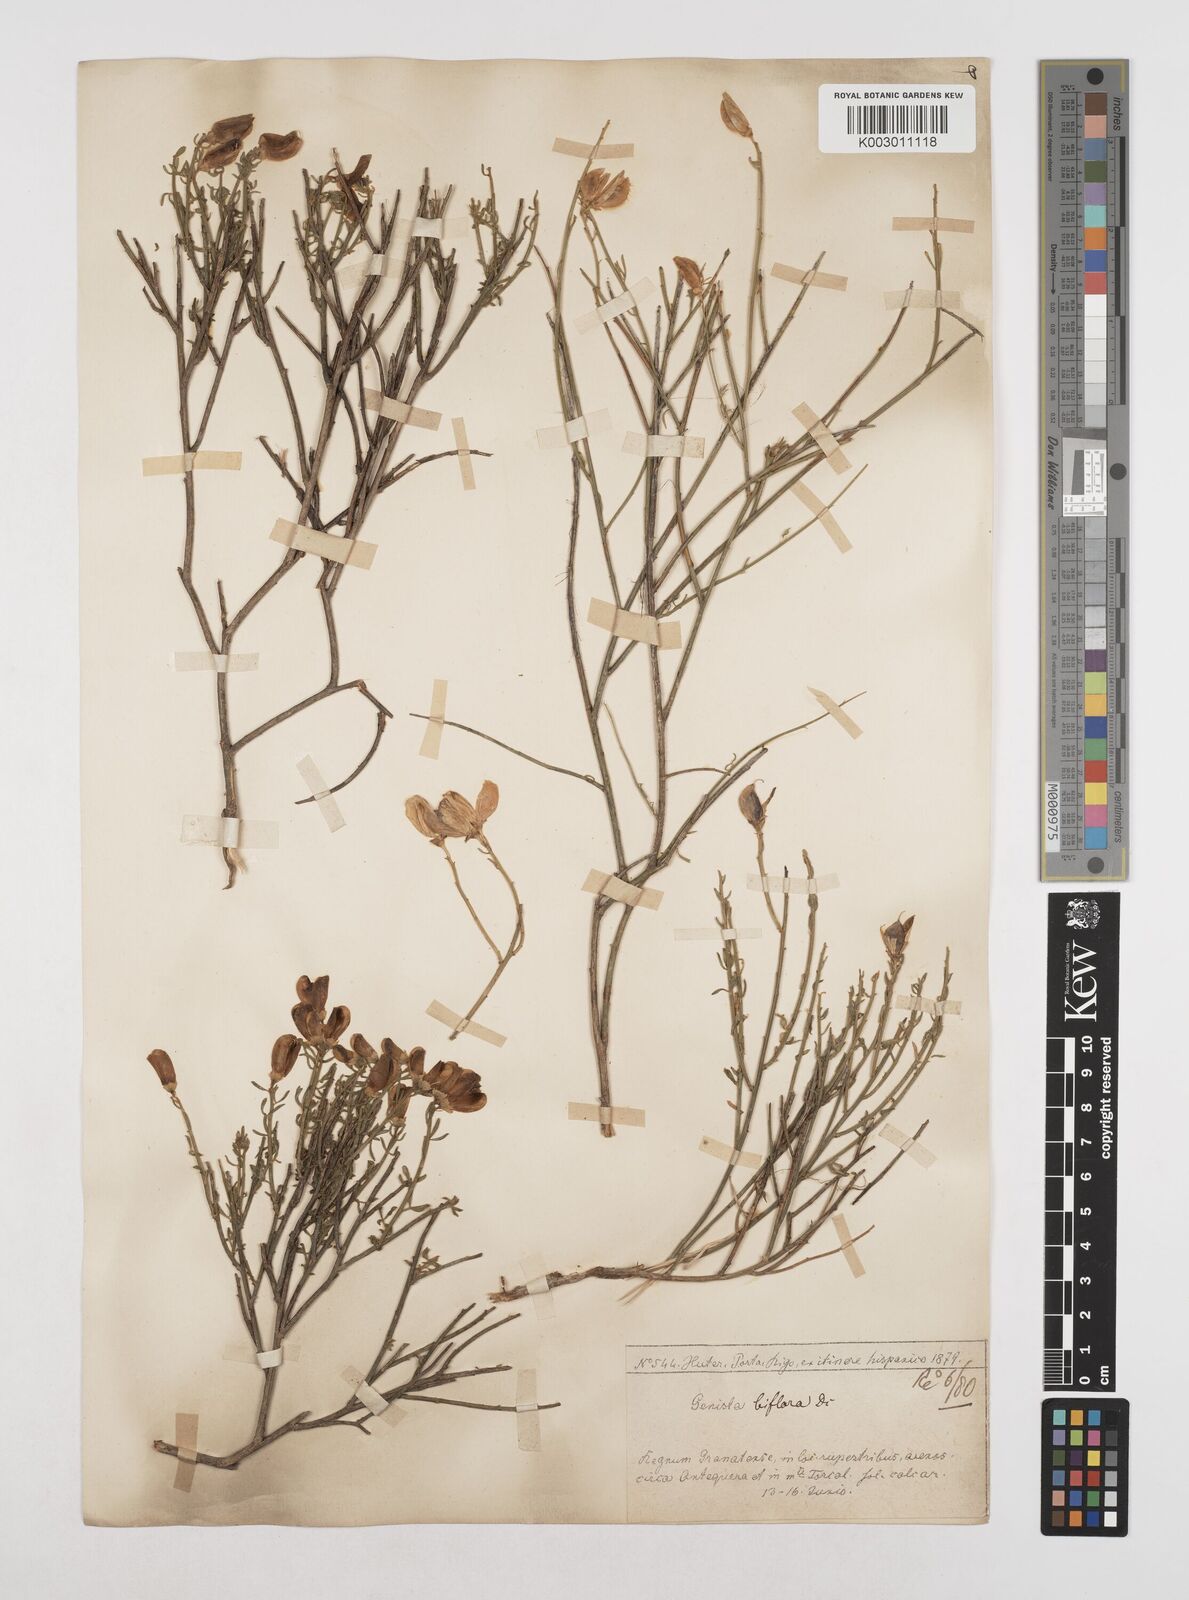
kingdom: Plantae
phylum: Tracheophyta
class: Magnoliopsida
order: Fabales
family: Fabaceae
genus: Cytisus
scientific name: Cytisus fontanesii
